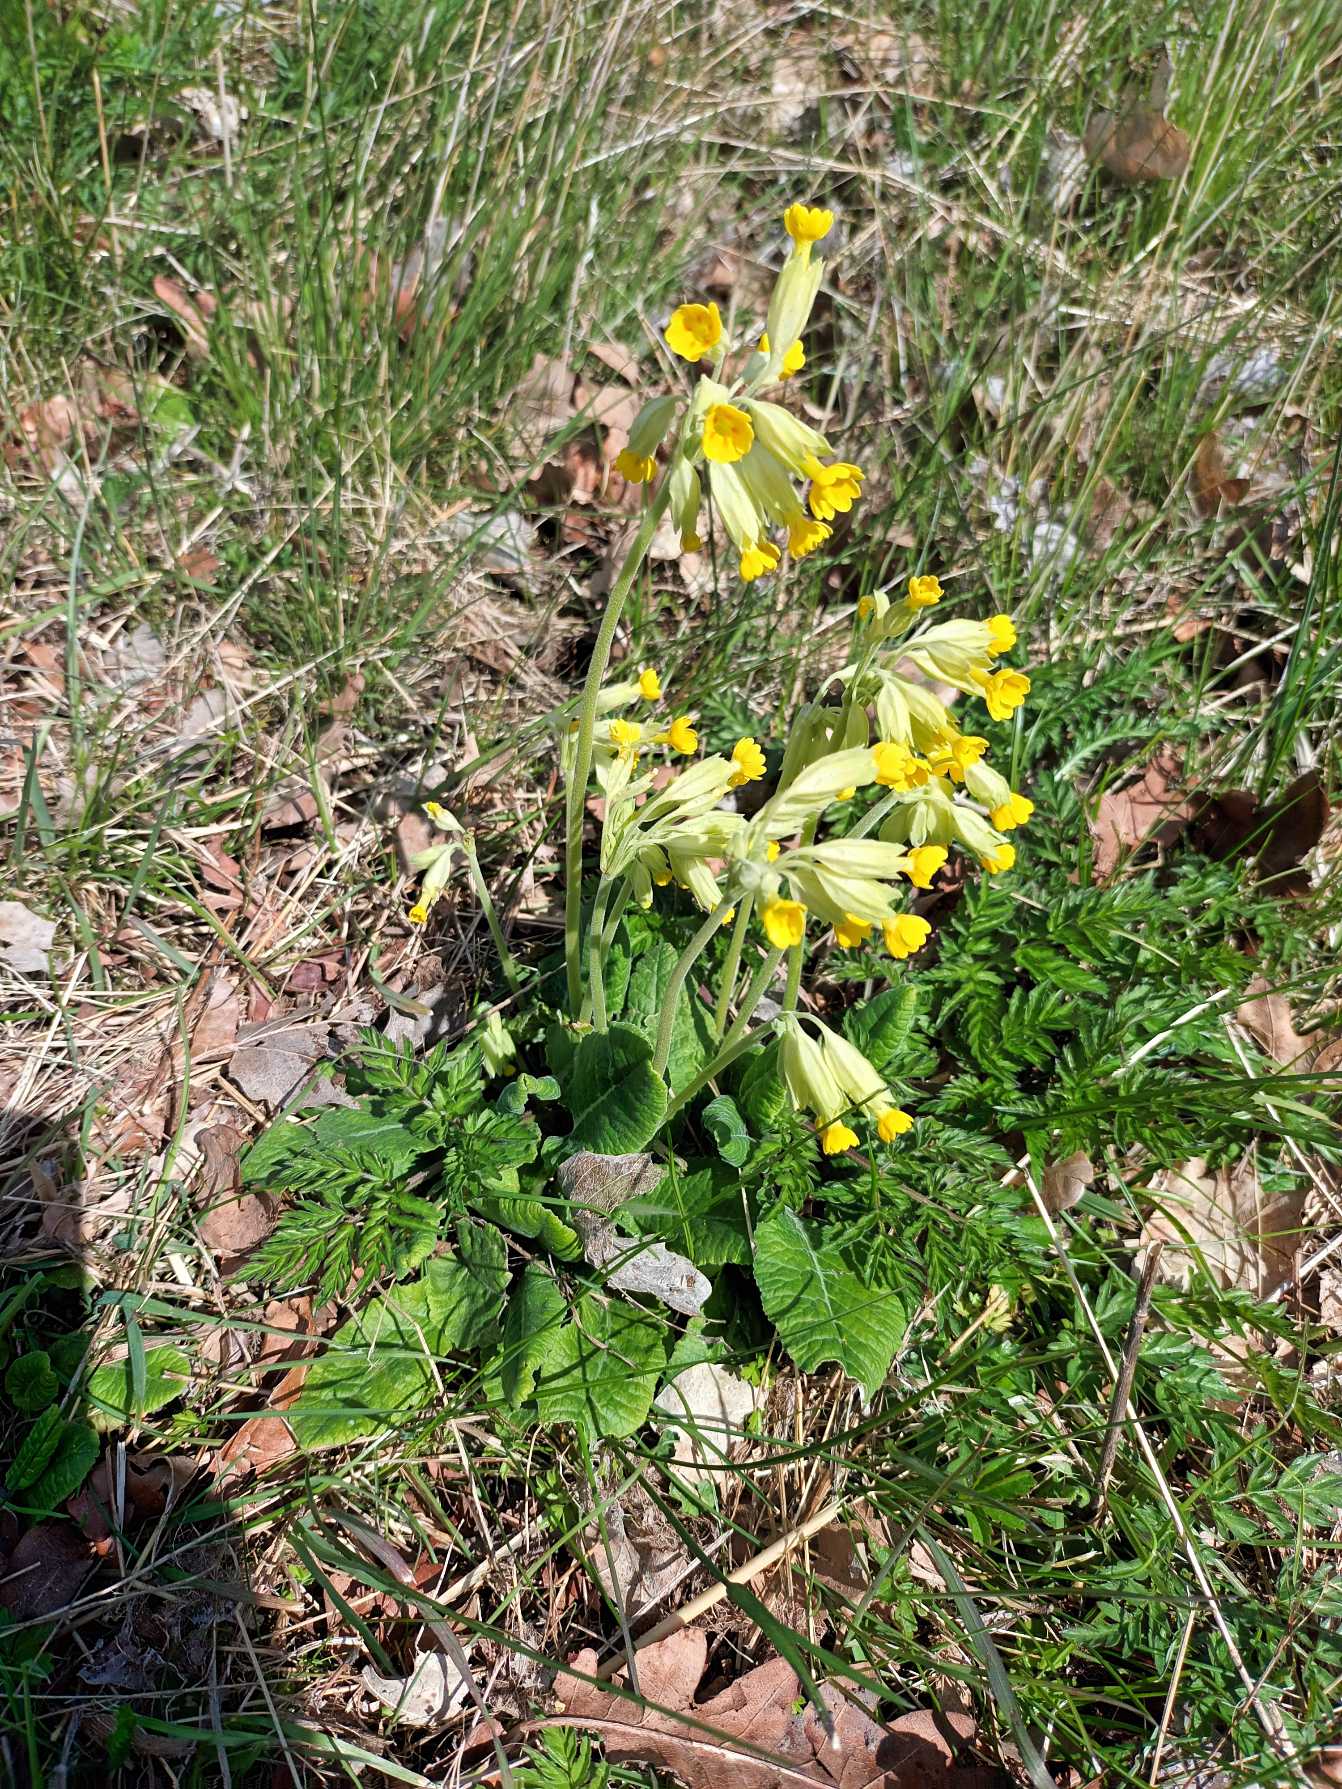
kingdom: Plantae
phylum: Tracheophyta
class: Magnoliopsida
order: Ericales
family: Primulaceae
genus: Primula
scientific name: Primula veris
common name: Hulkravet kodriver
